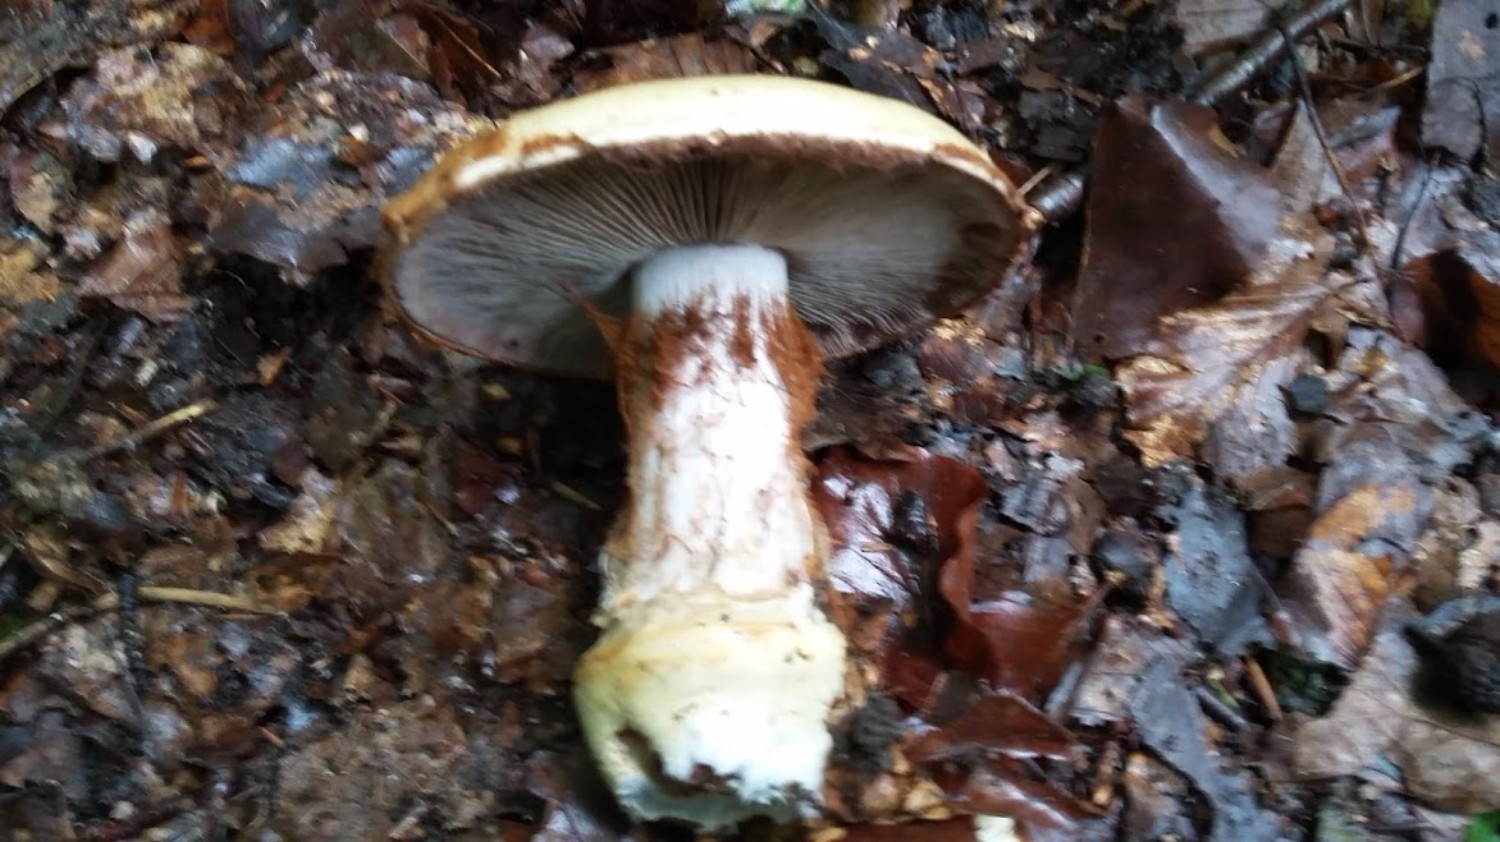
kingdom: Fungi
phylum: Basidiomycota
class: Agaricomycetes
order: Agaricales
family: Cortinariaceae
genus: Cortinarius
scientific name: Cortinarius anserinus
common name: bøge-slørhat
